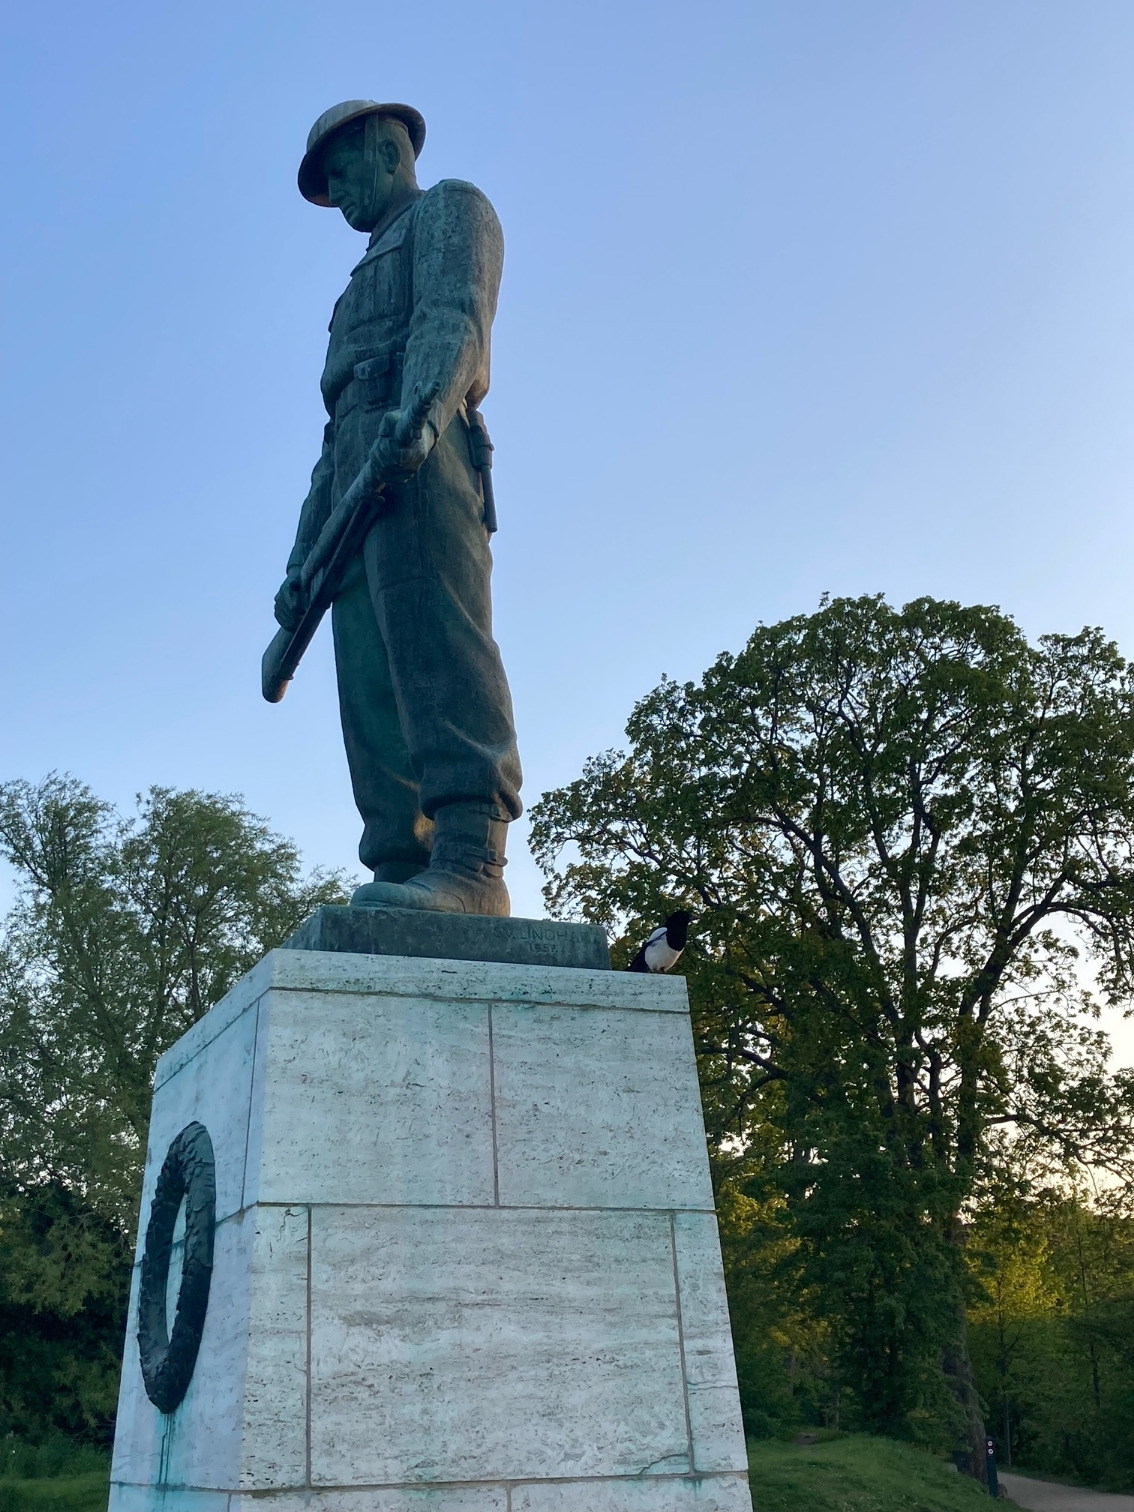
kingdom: Animalia
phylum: Chordata
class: Aves
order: Passeriformes
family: Corvidae
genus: Pica
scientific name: Pica pica
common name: Husskade
